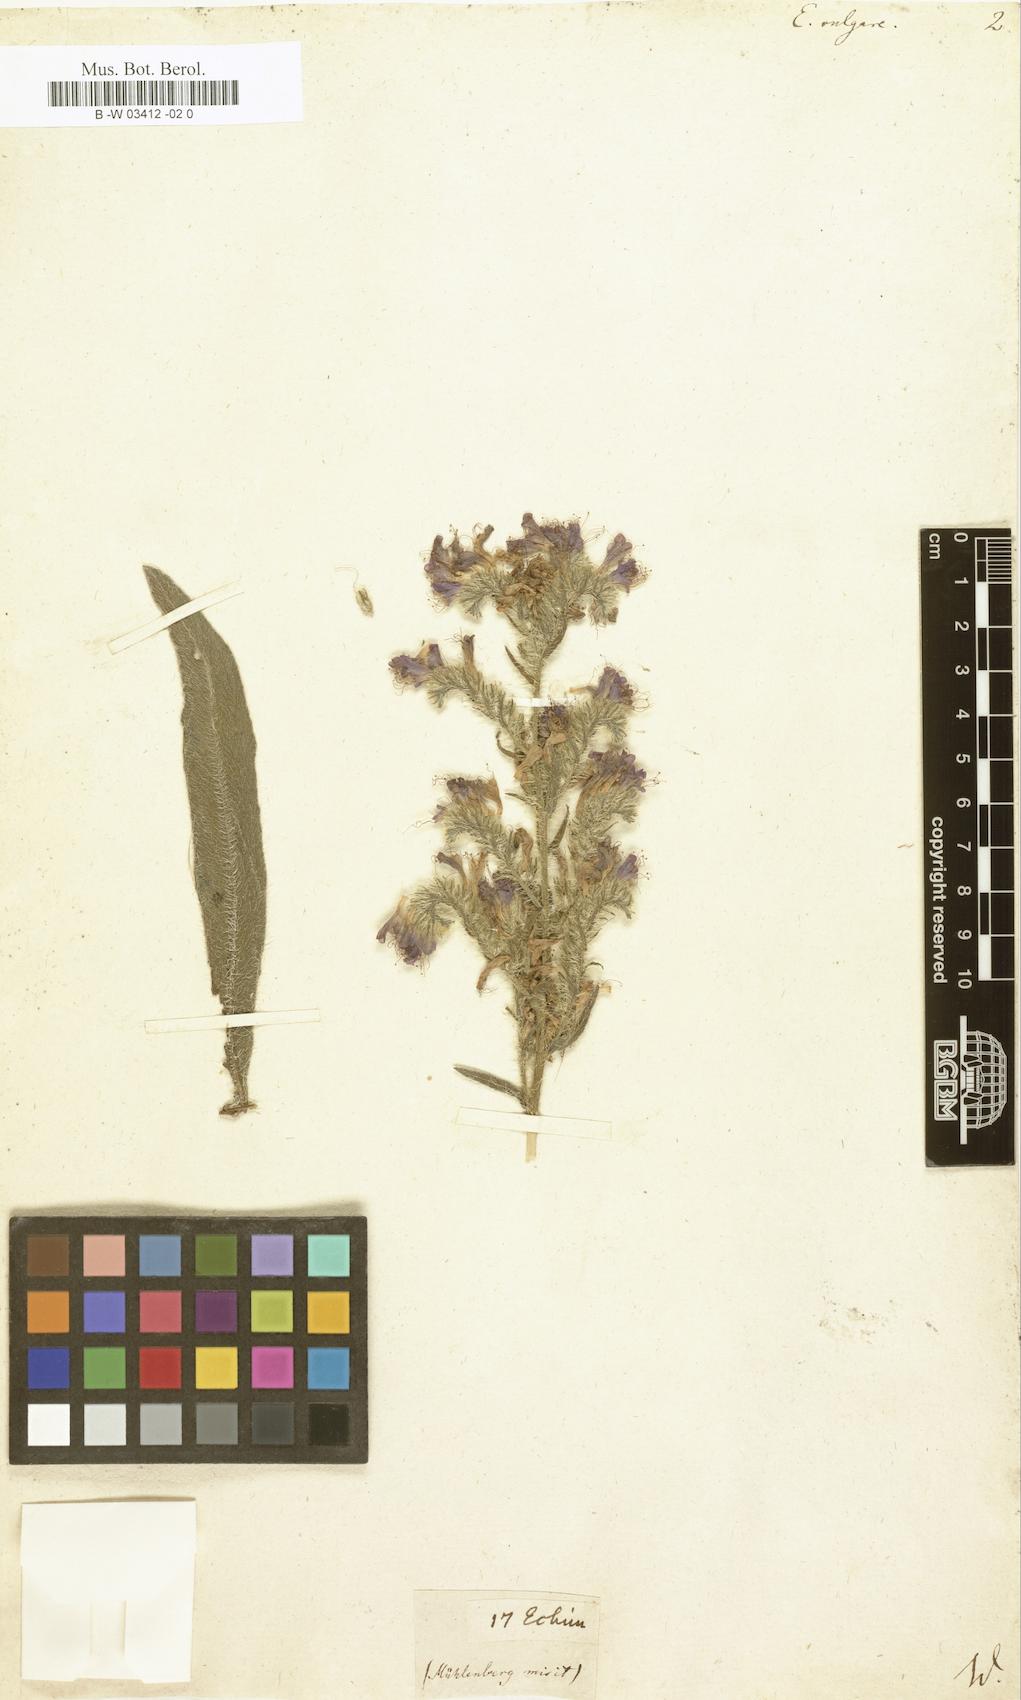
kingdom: Plantae
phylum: Tracheophyta
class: Magnoliopsida
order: Boraginales
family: Boraginaceae
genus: Echium
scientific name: Echium vulgare
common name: Common viper's bugloss
